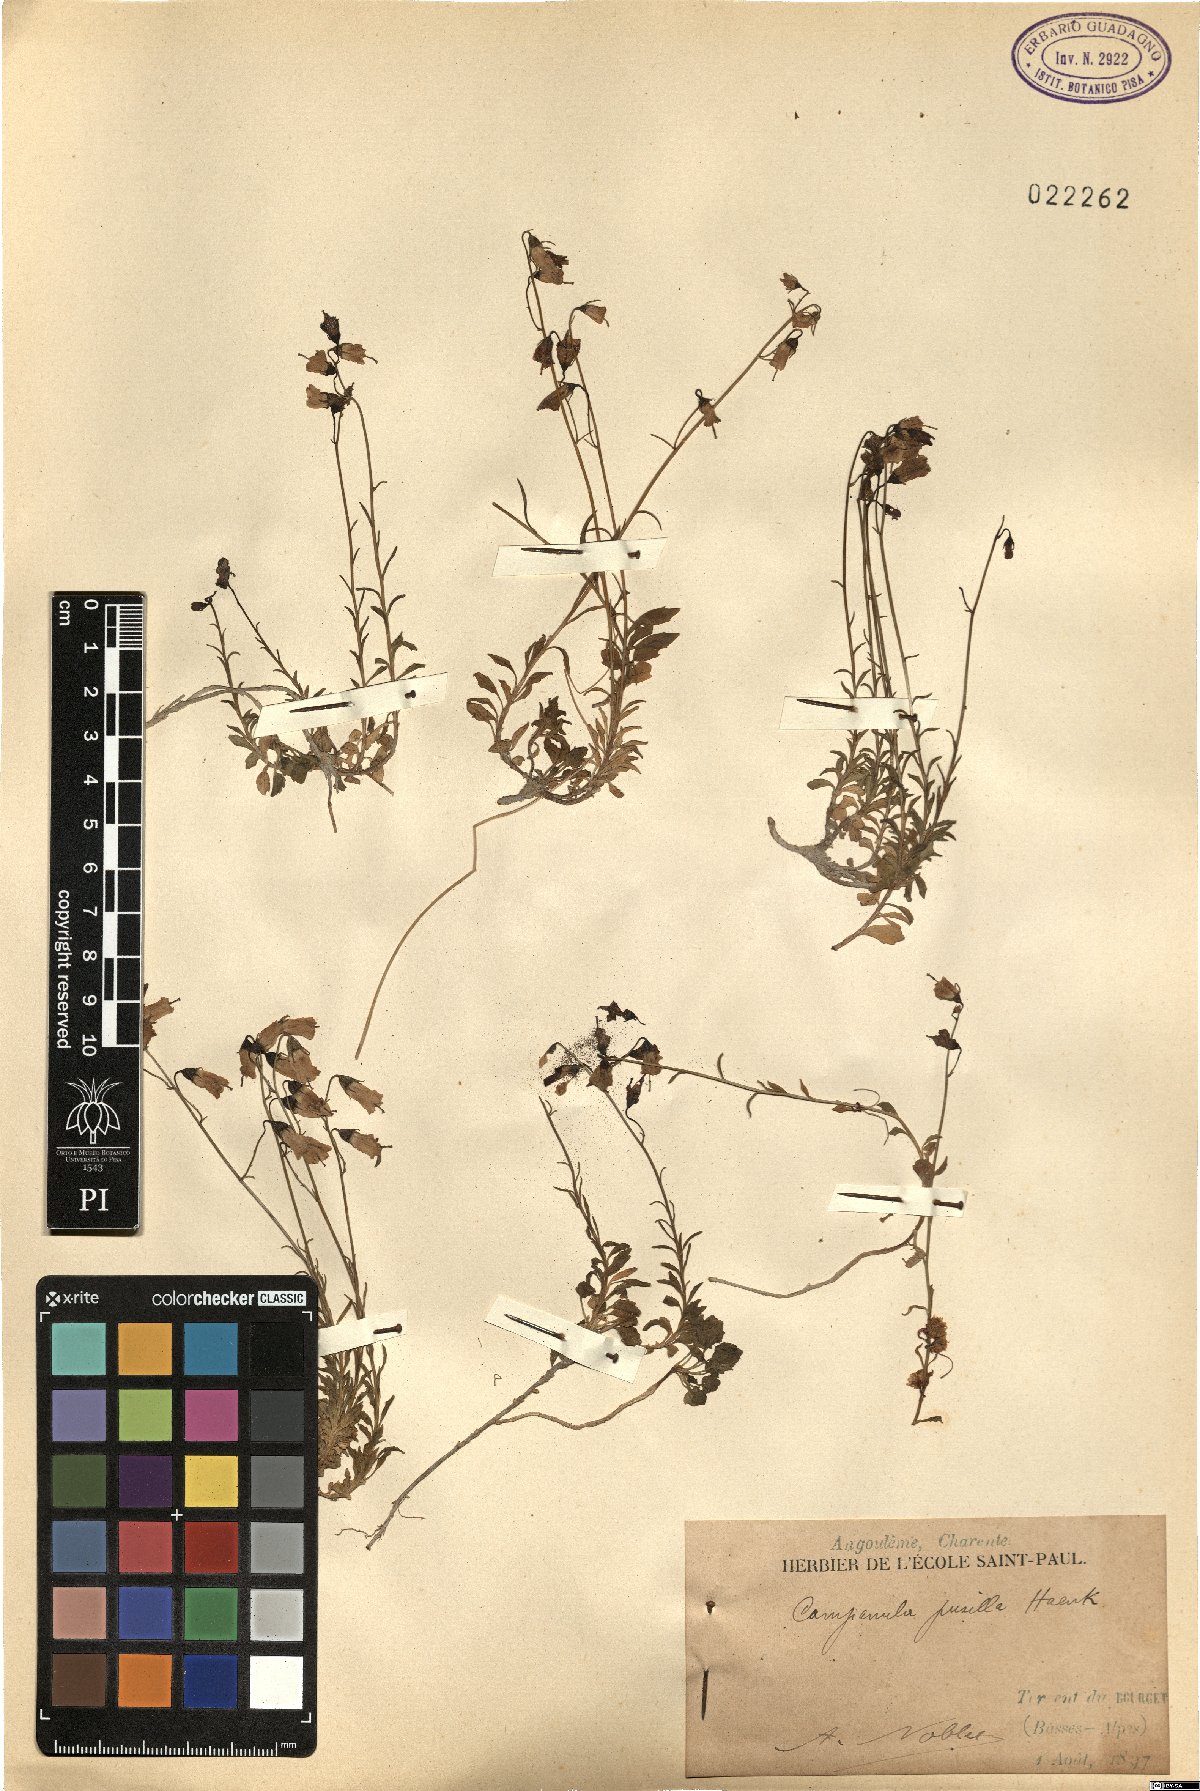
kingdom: Plantae
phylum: Tracheophyta
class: Magnoliopsida
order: Asterales
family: Campanulaceae
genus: Campanula
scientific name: Campanula cochleariifolia
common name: Fairies'-thimbles
